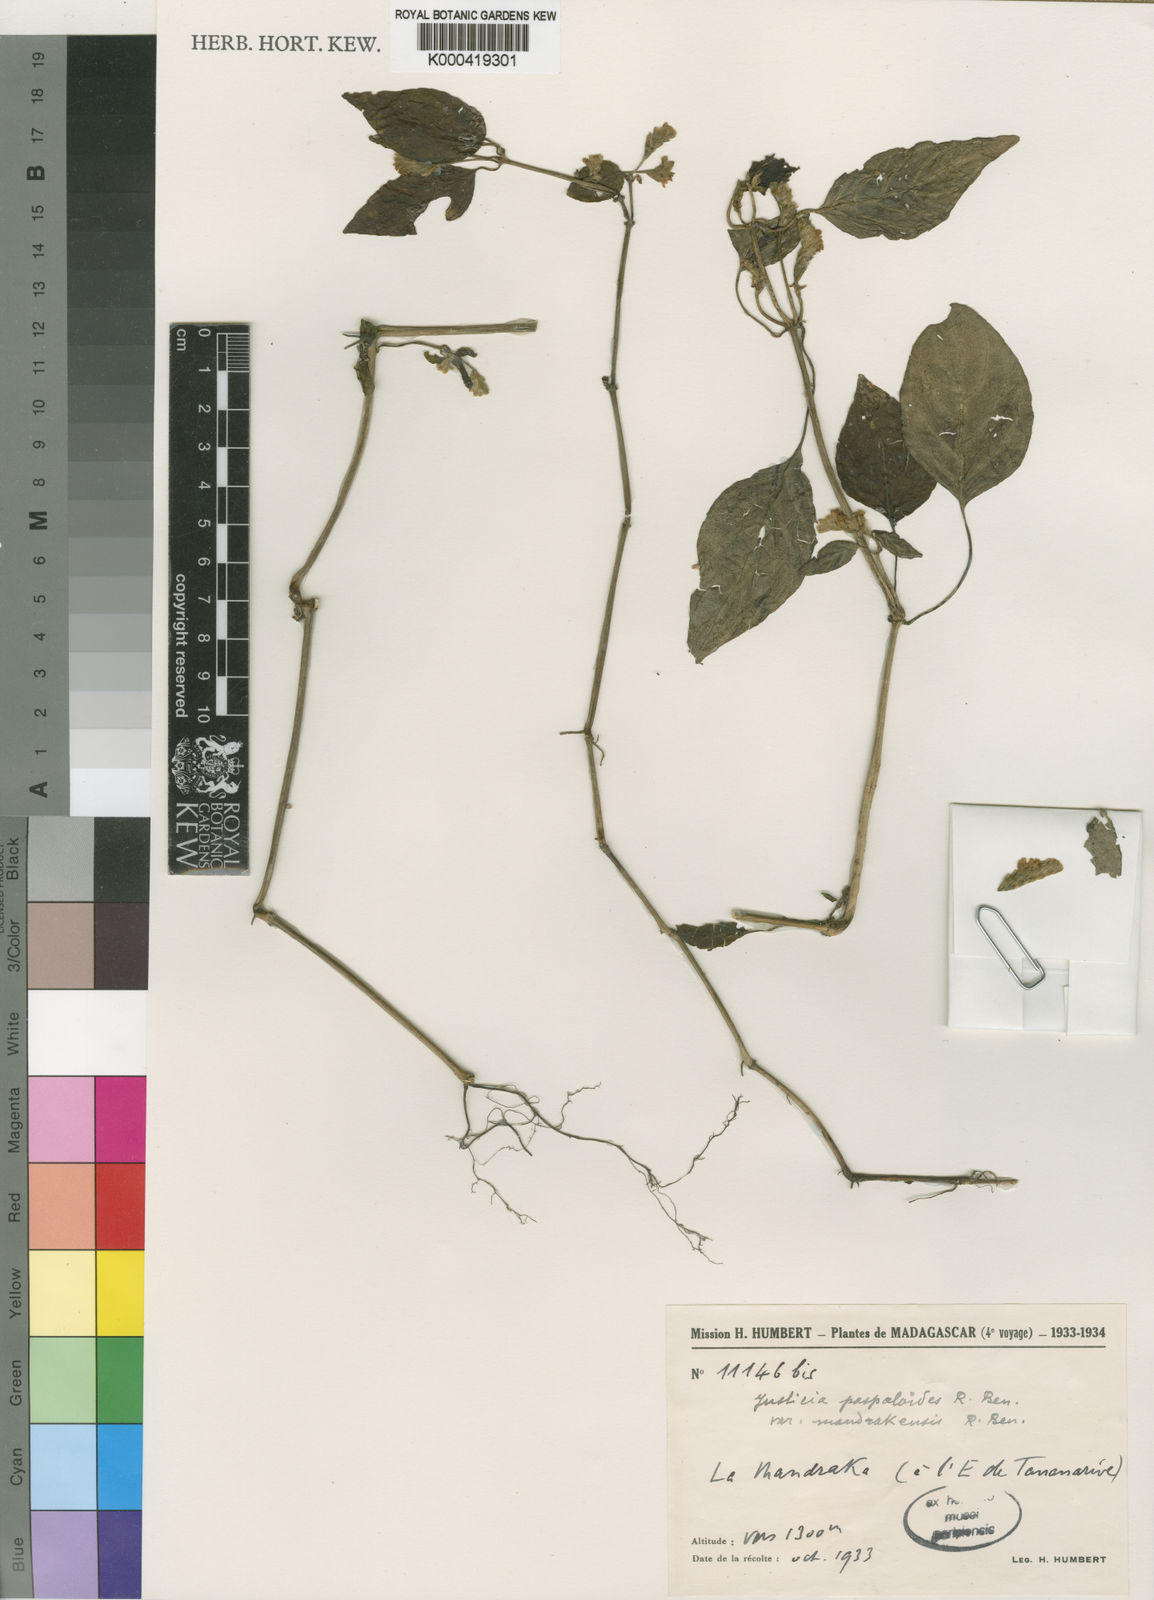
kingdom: Plantae
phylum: Tracheophyta
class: Magnoliopsida
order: Lamiales
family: Acanthaceae
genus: Justicia
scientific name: Justicia paspaloides
